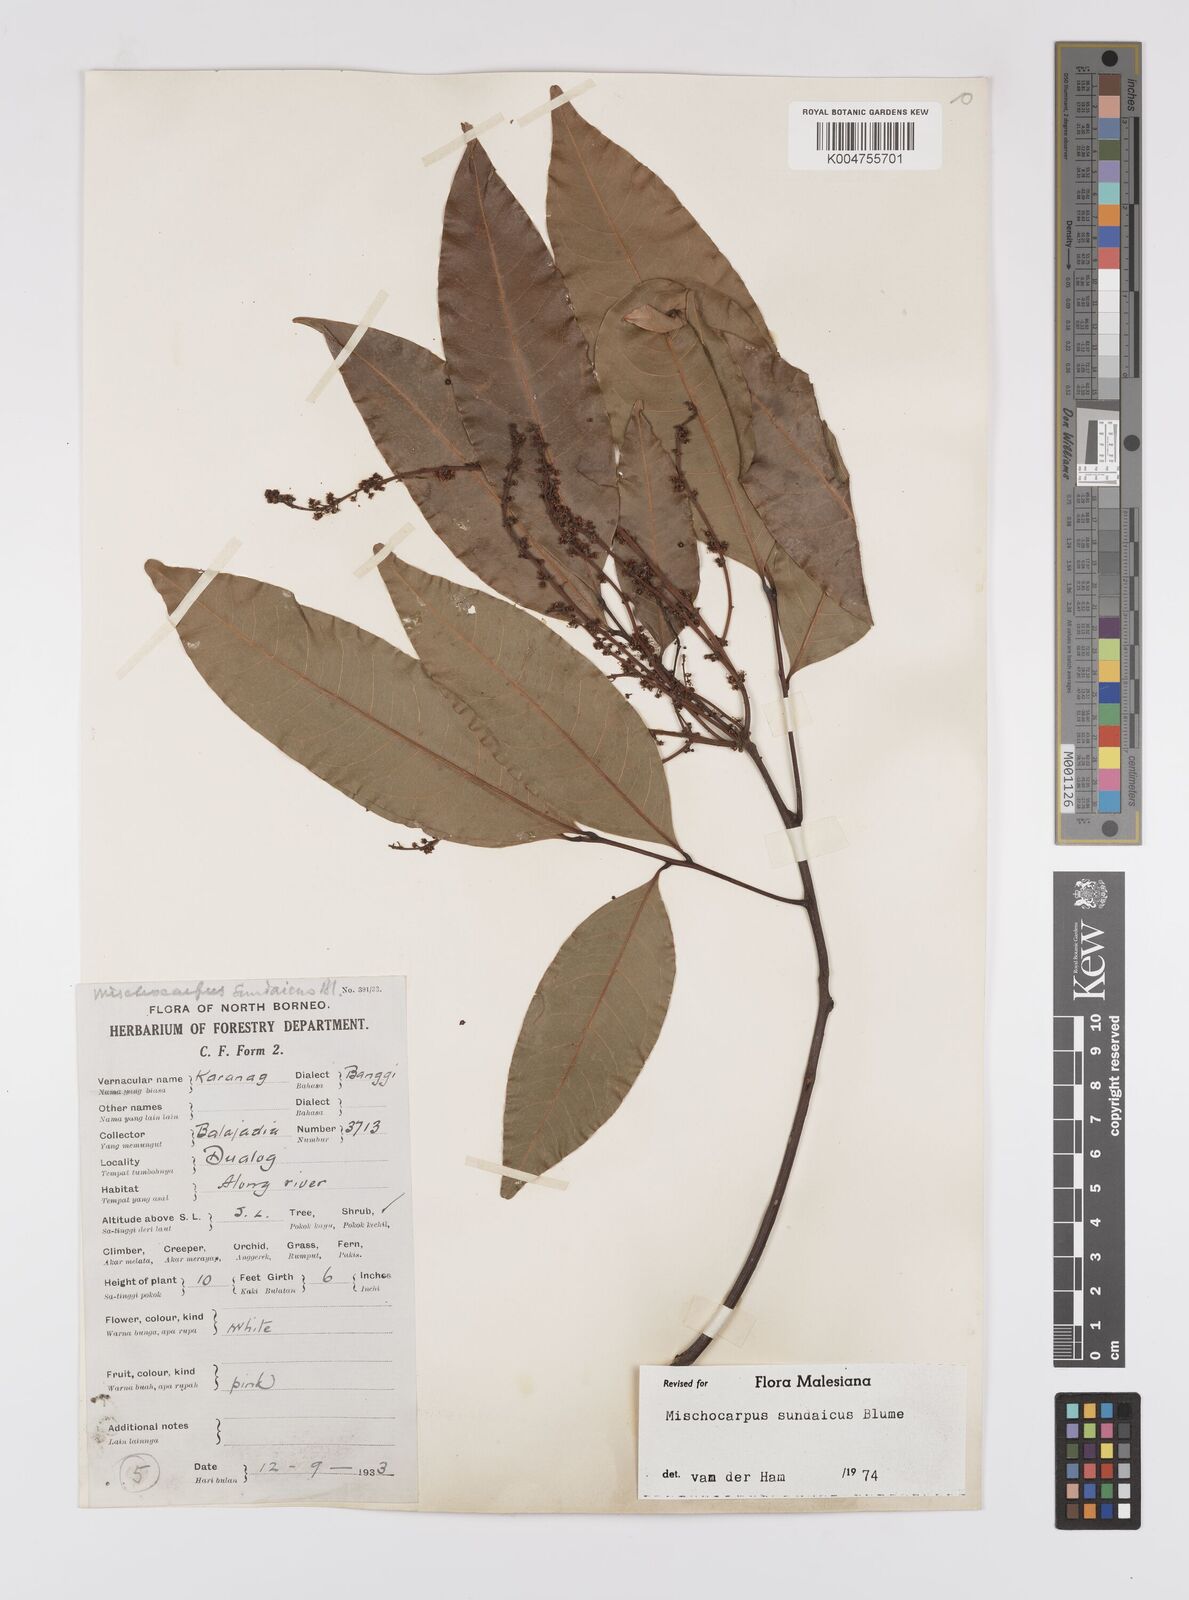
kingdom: Plantae
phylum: Tracheophyta
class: Magnoliopsida
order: Sapindales
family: Sapindaceae
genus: Mischocarpus
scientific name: Mischocarpus sundaicus
